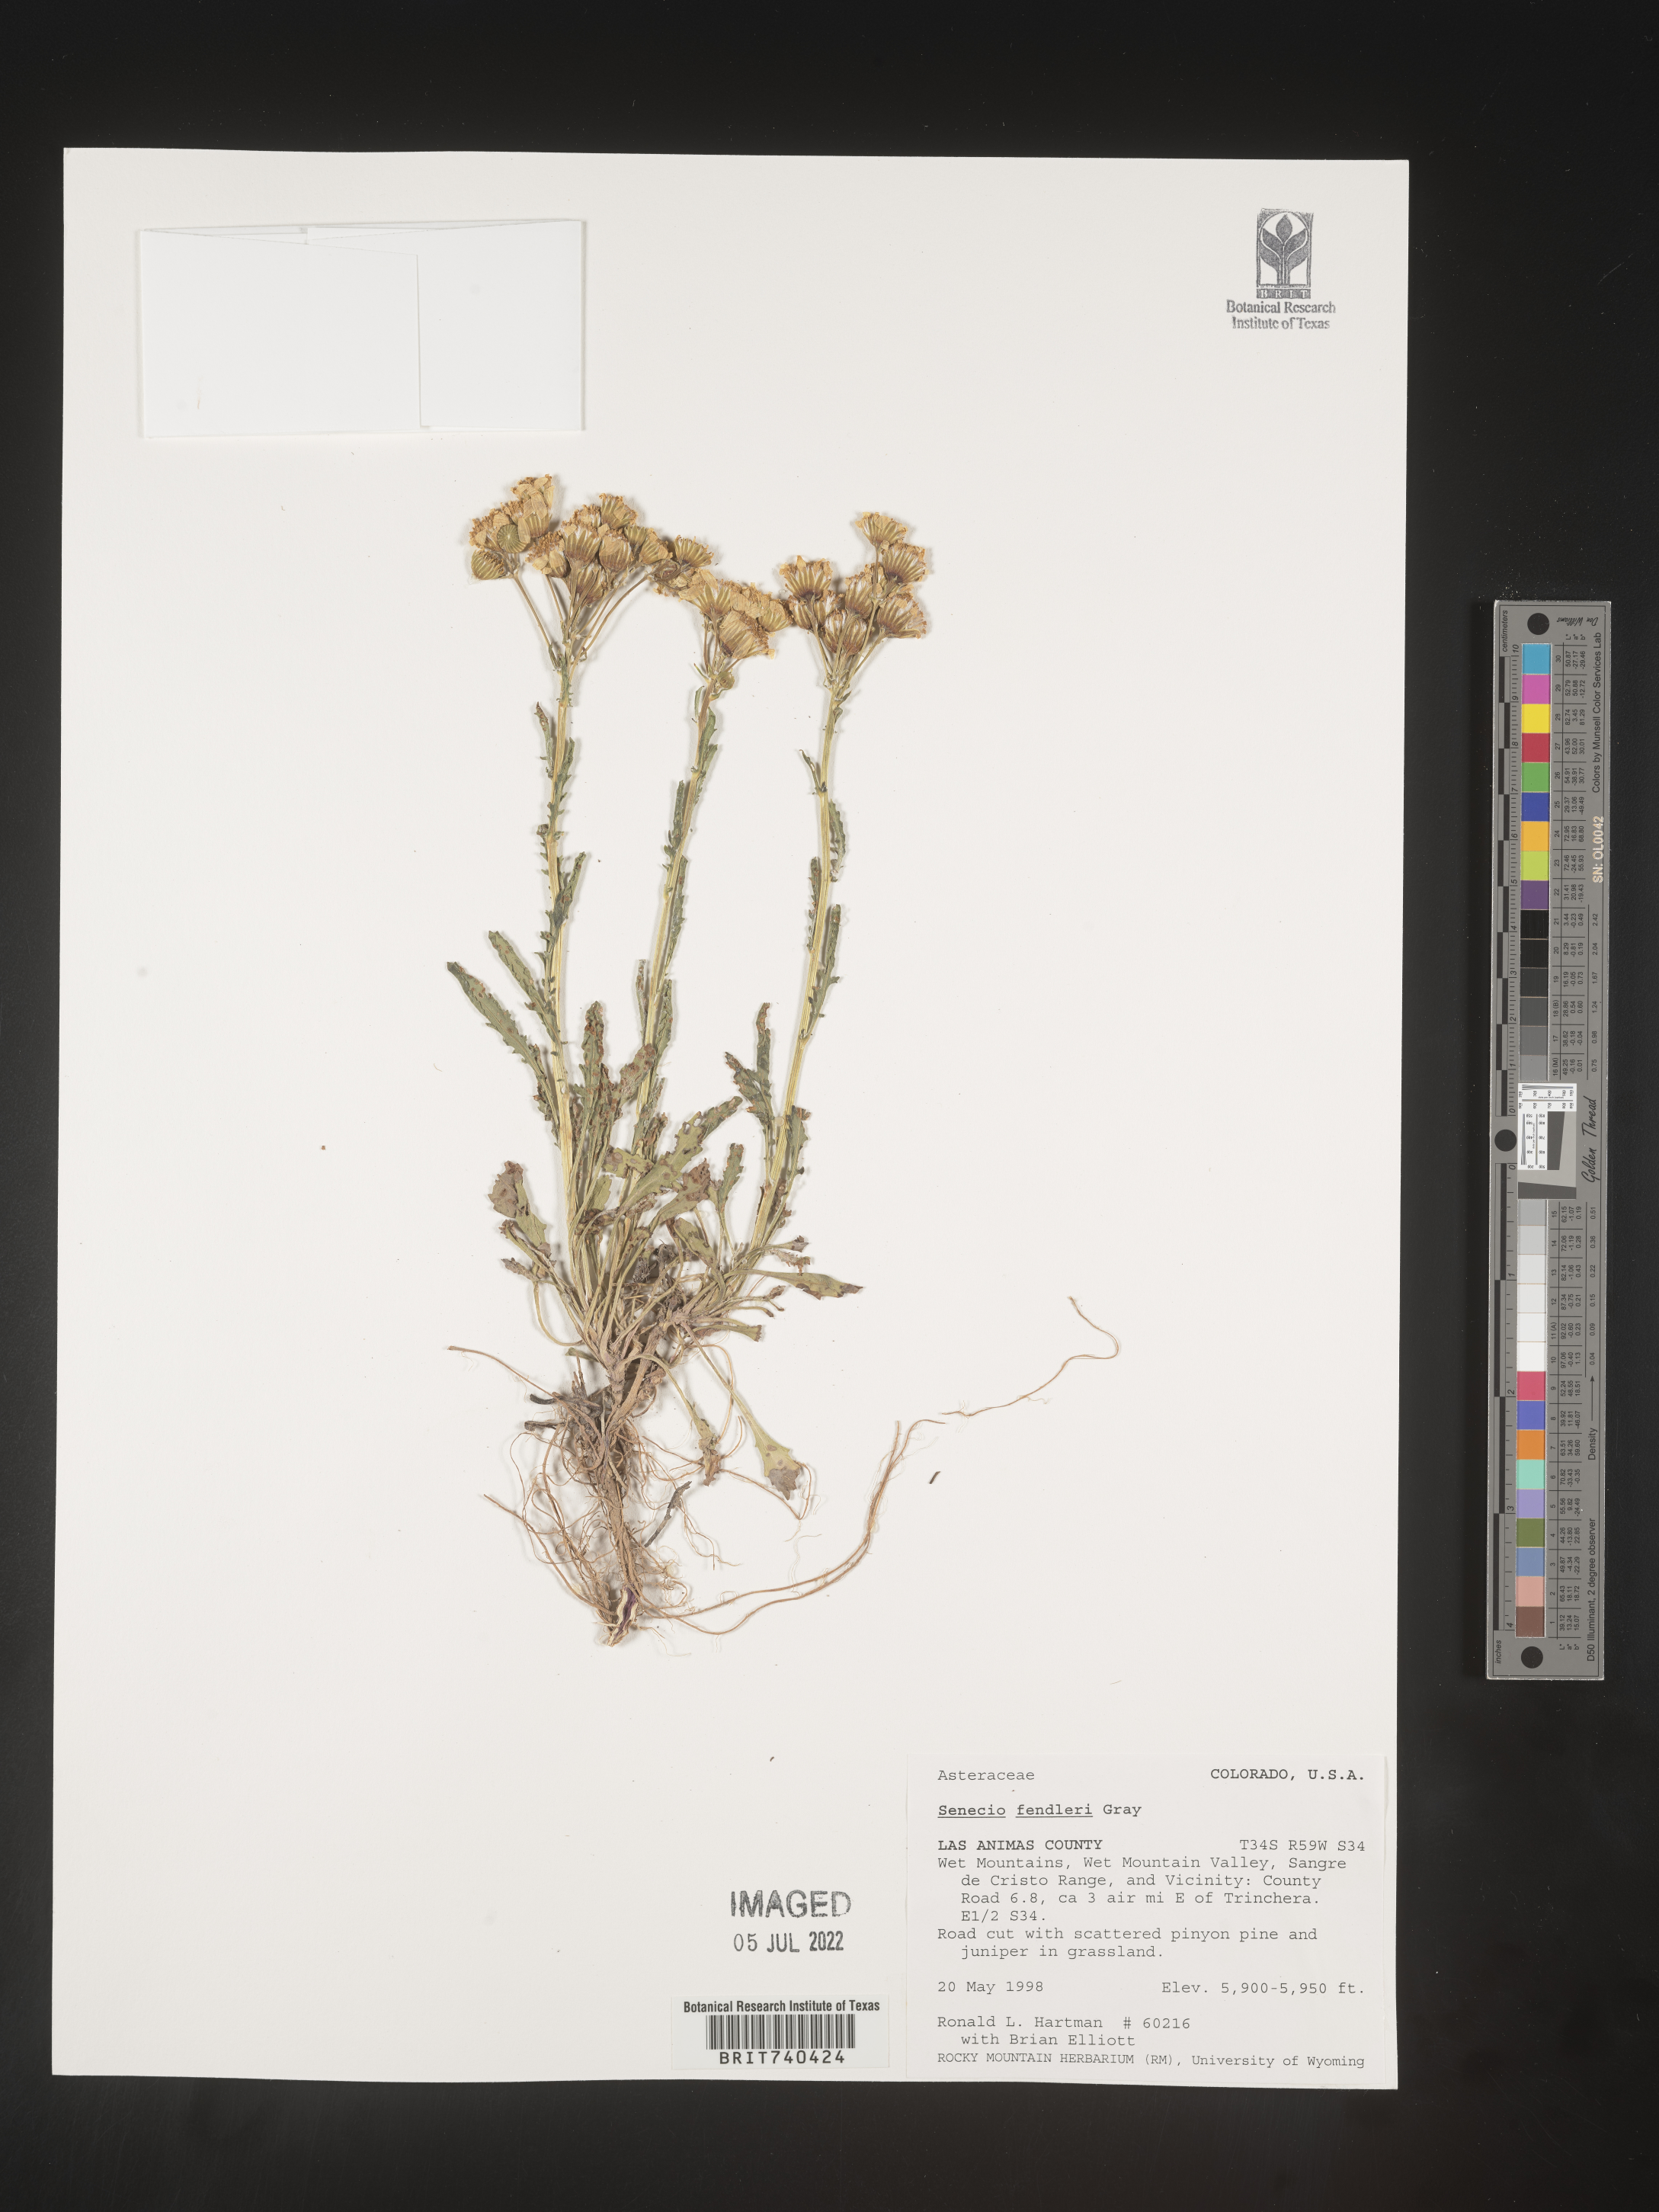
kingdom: Plantae
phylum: Tracheophyta
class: Magnoliopsida
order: Asterales
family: Asteraceae
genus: Packera
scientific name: Packera fendleri
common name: Notch-leaf butterweed
